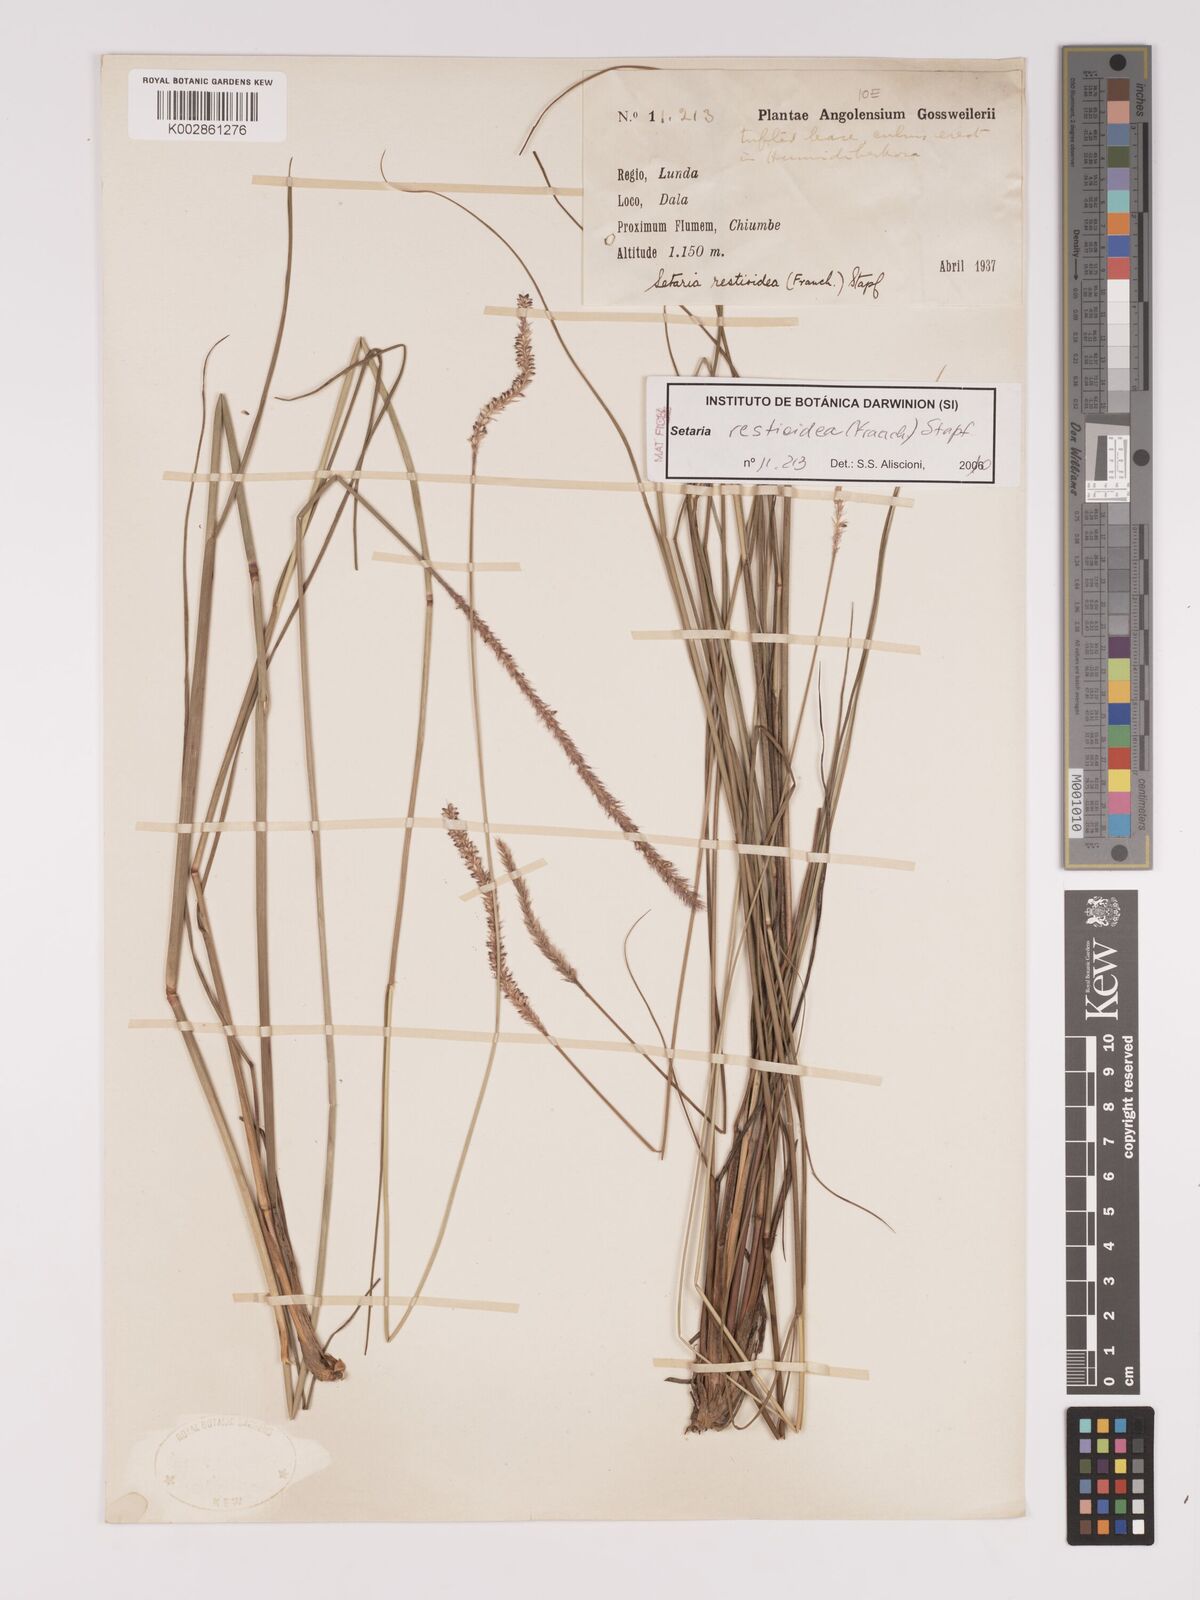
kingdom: Plantae
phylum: Tracheophyta
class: Liliopsida
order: Poales
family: Poaceae
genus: Setaria
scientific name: Setaria restioidea
